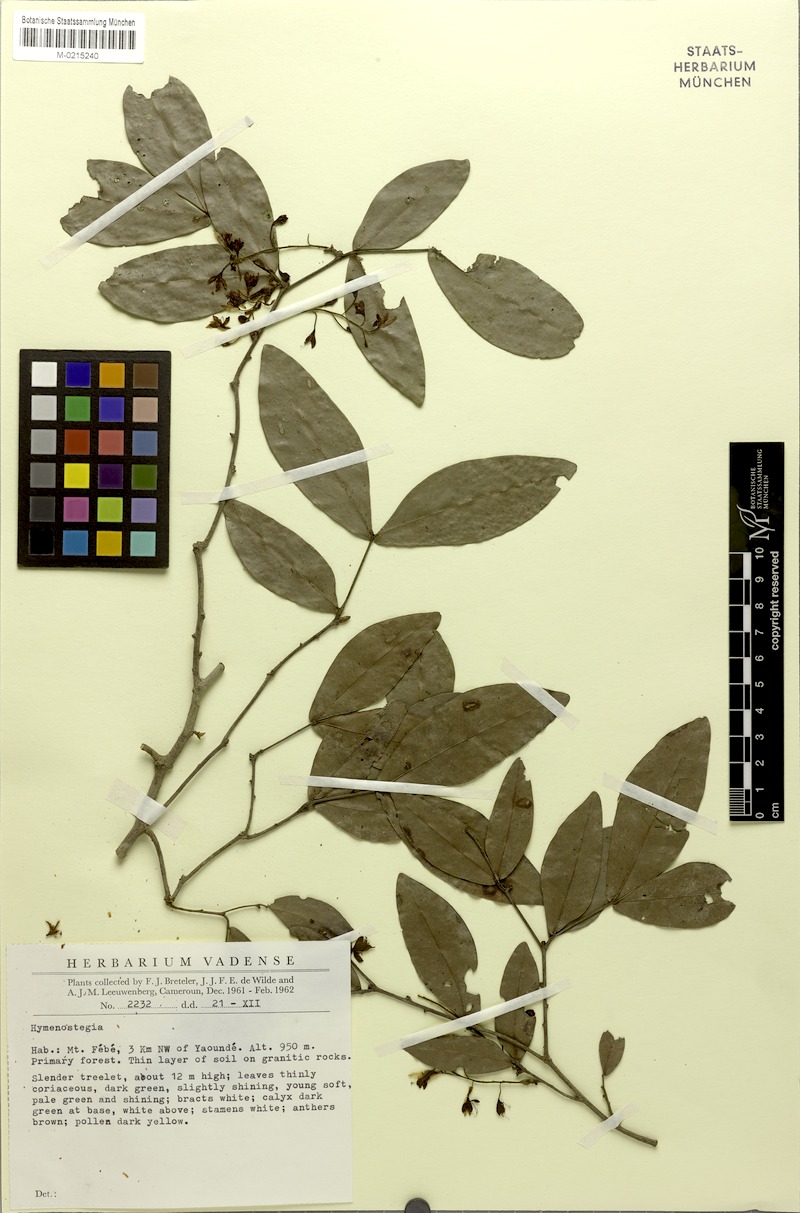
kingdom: Plantae
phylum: Tracheophyta
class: Magnoliopsida
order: Fabales
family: Fabaceae
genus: Talbotiella
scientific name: Talbotiella breteleri
